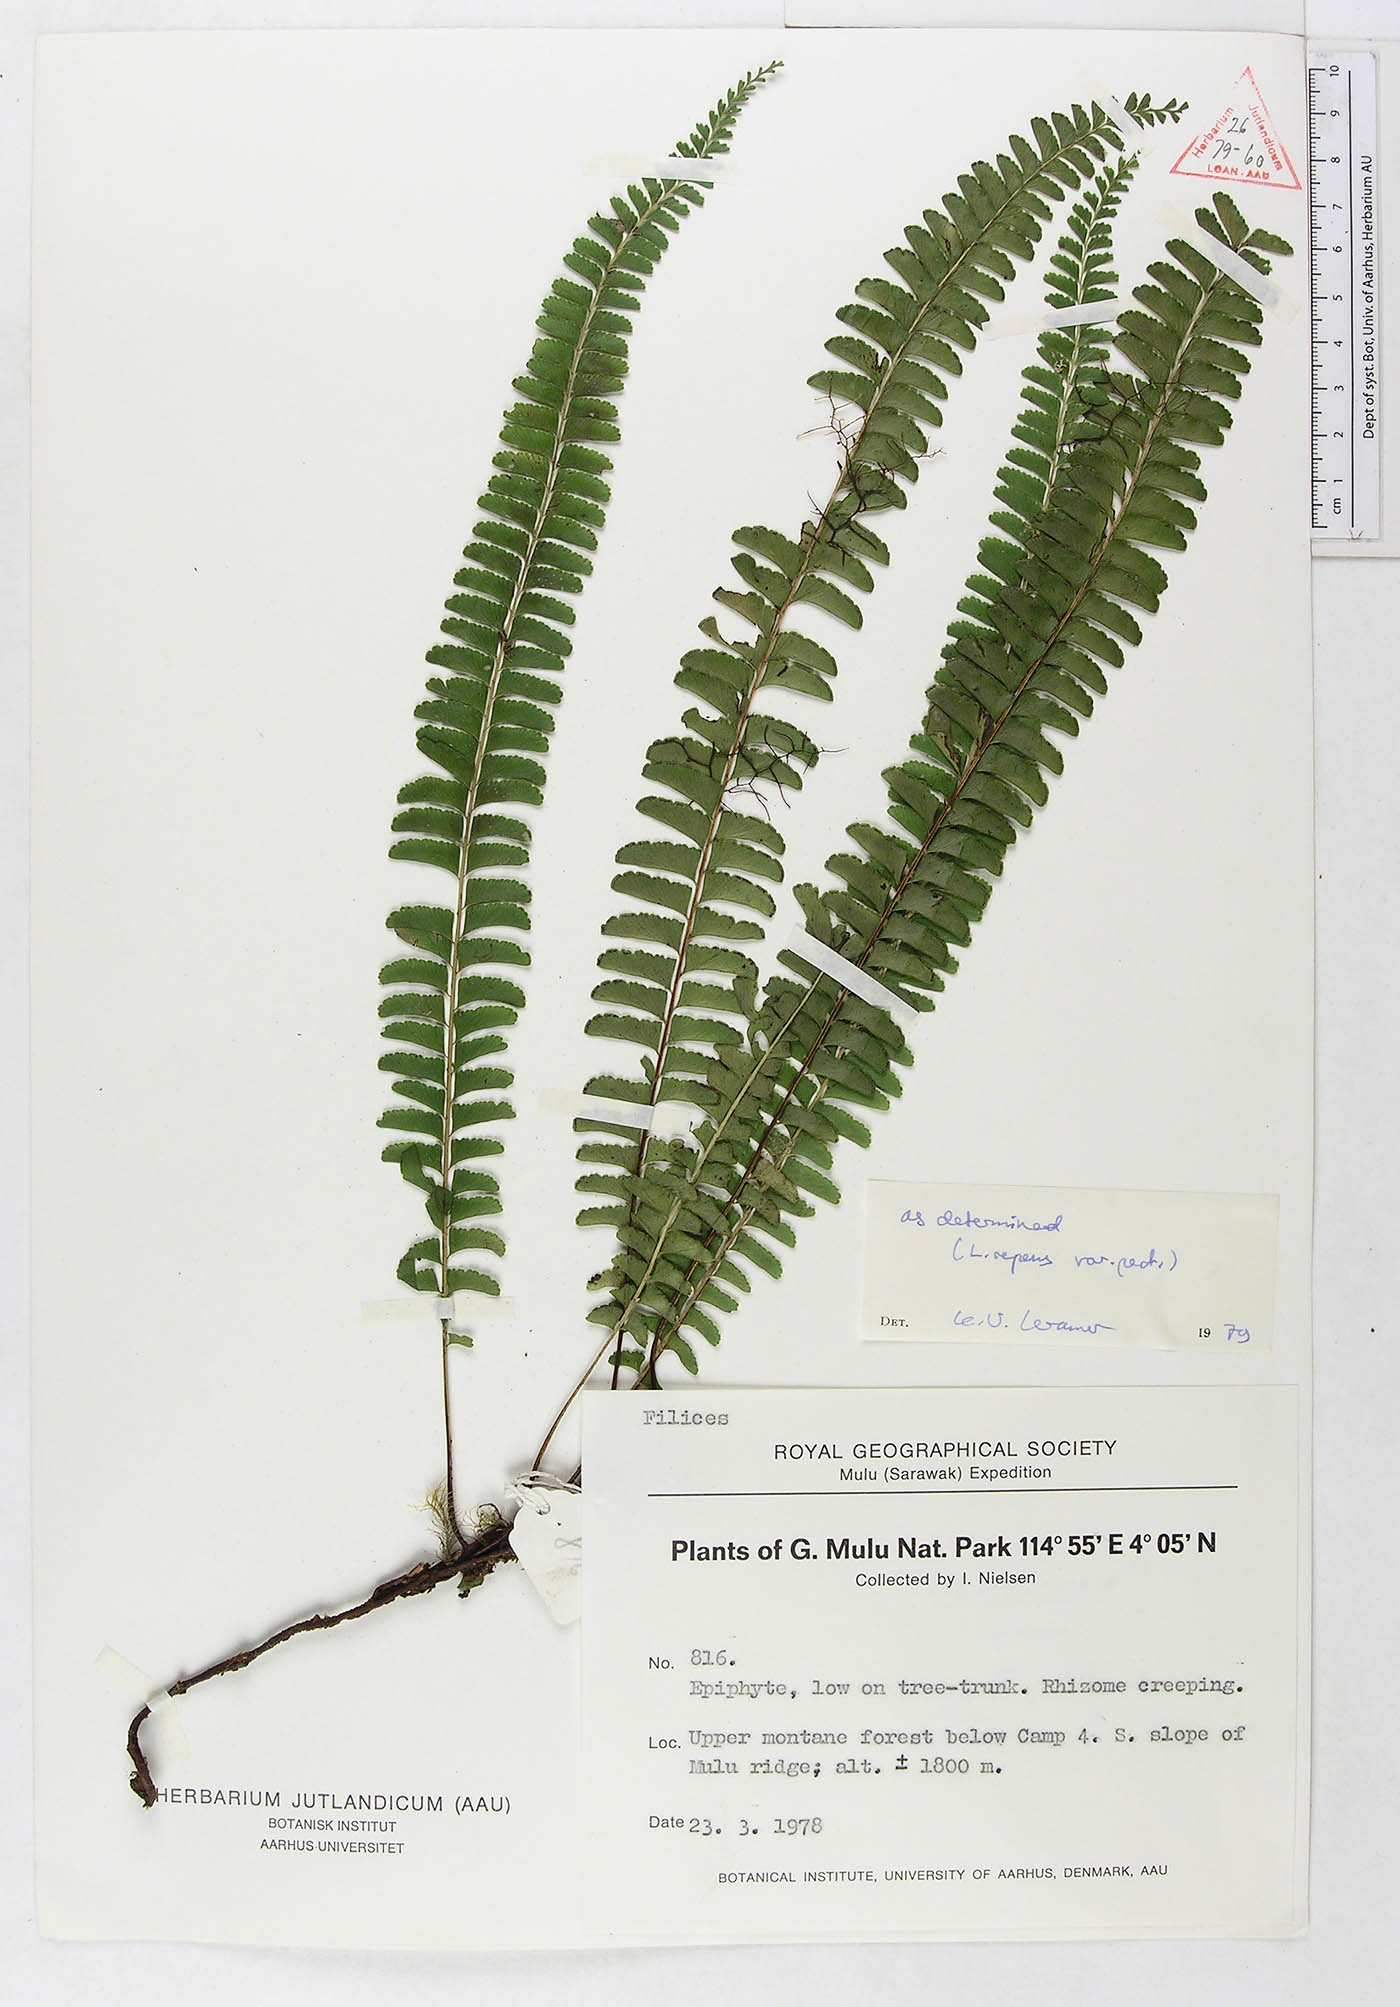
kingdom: Plantae
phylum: Tracheophyta
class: Polypodiopsida
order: Polypodiales
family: Lindsaeaceae
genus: Lindsaea
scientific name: Lindsaea capillacea
